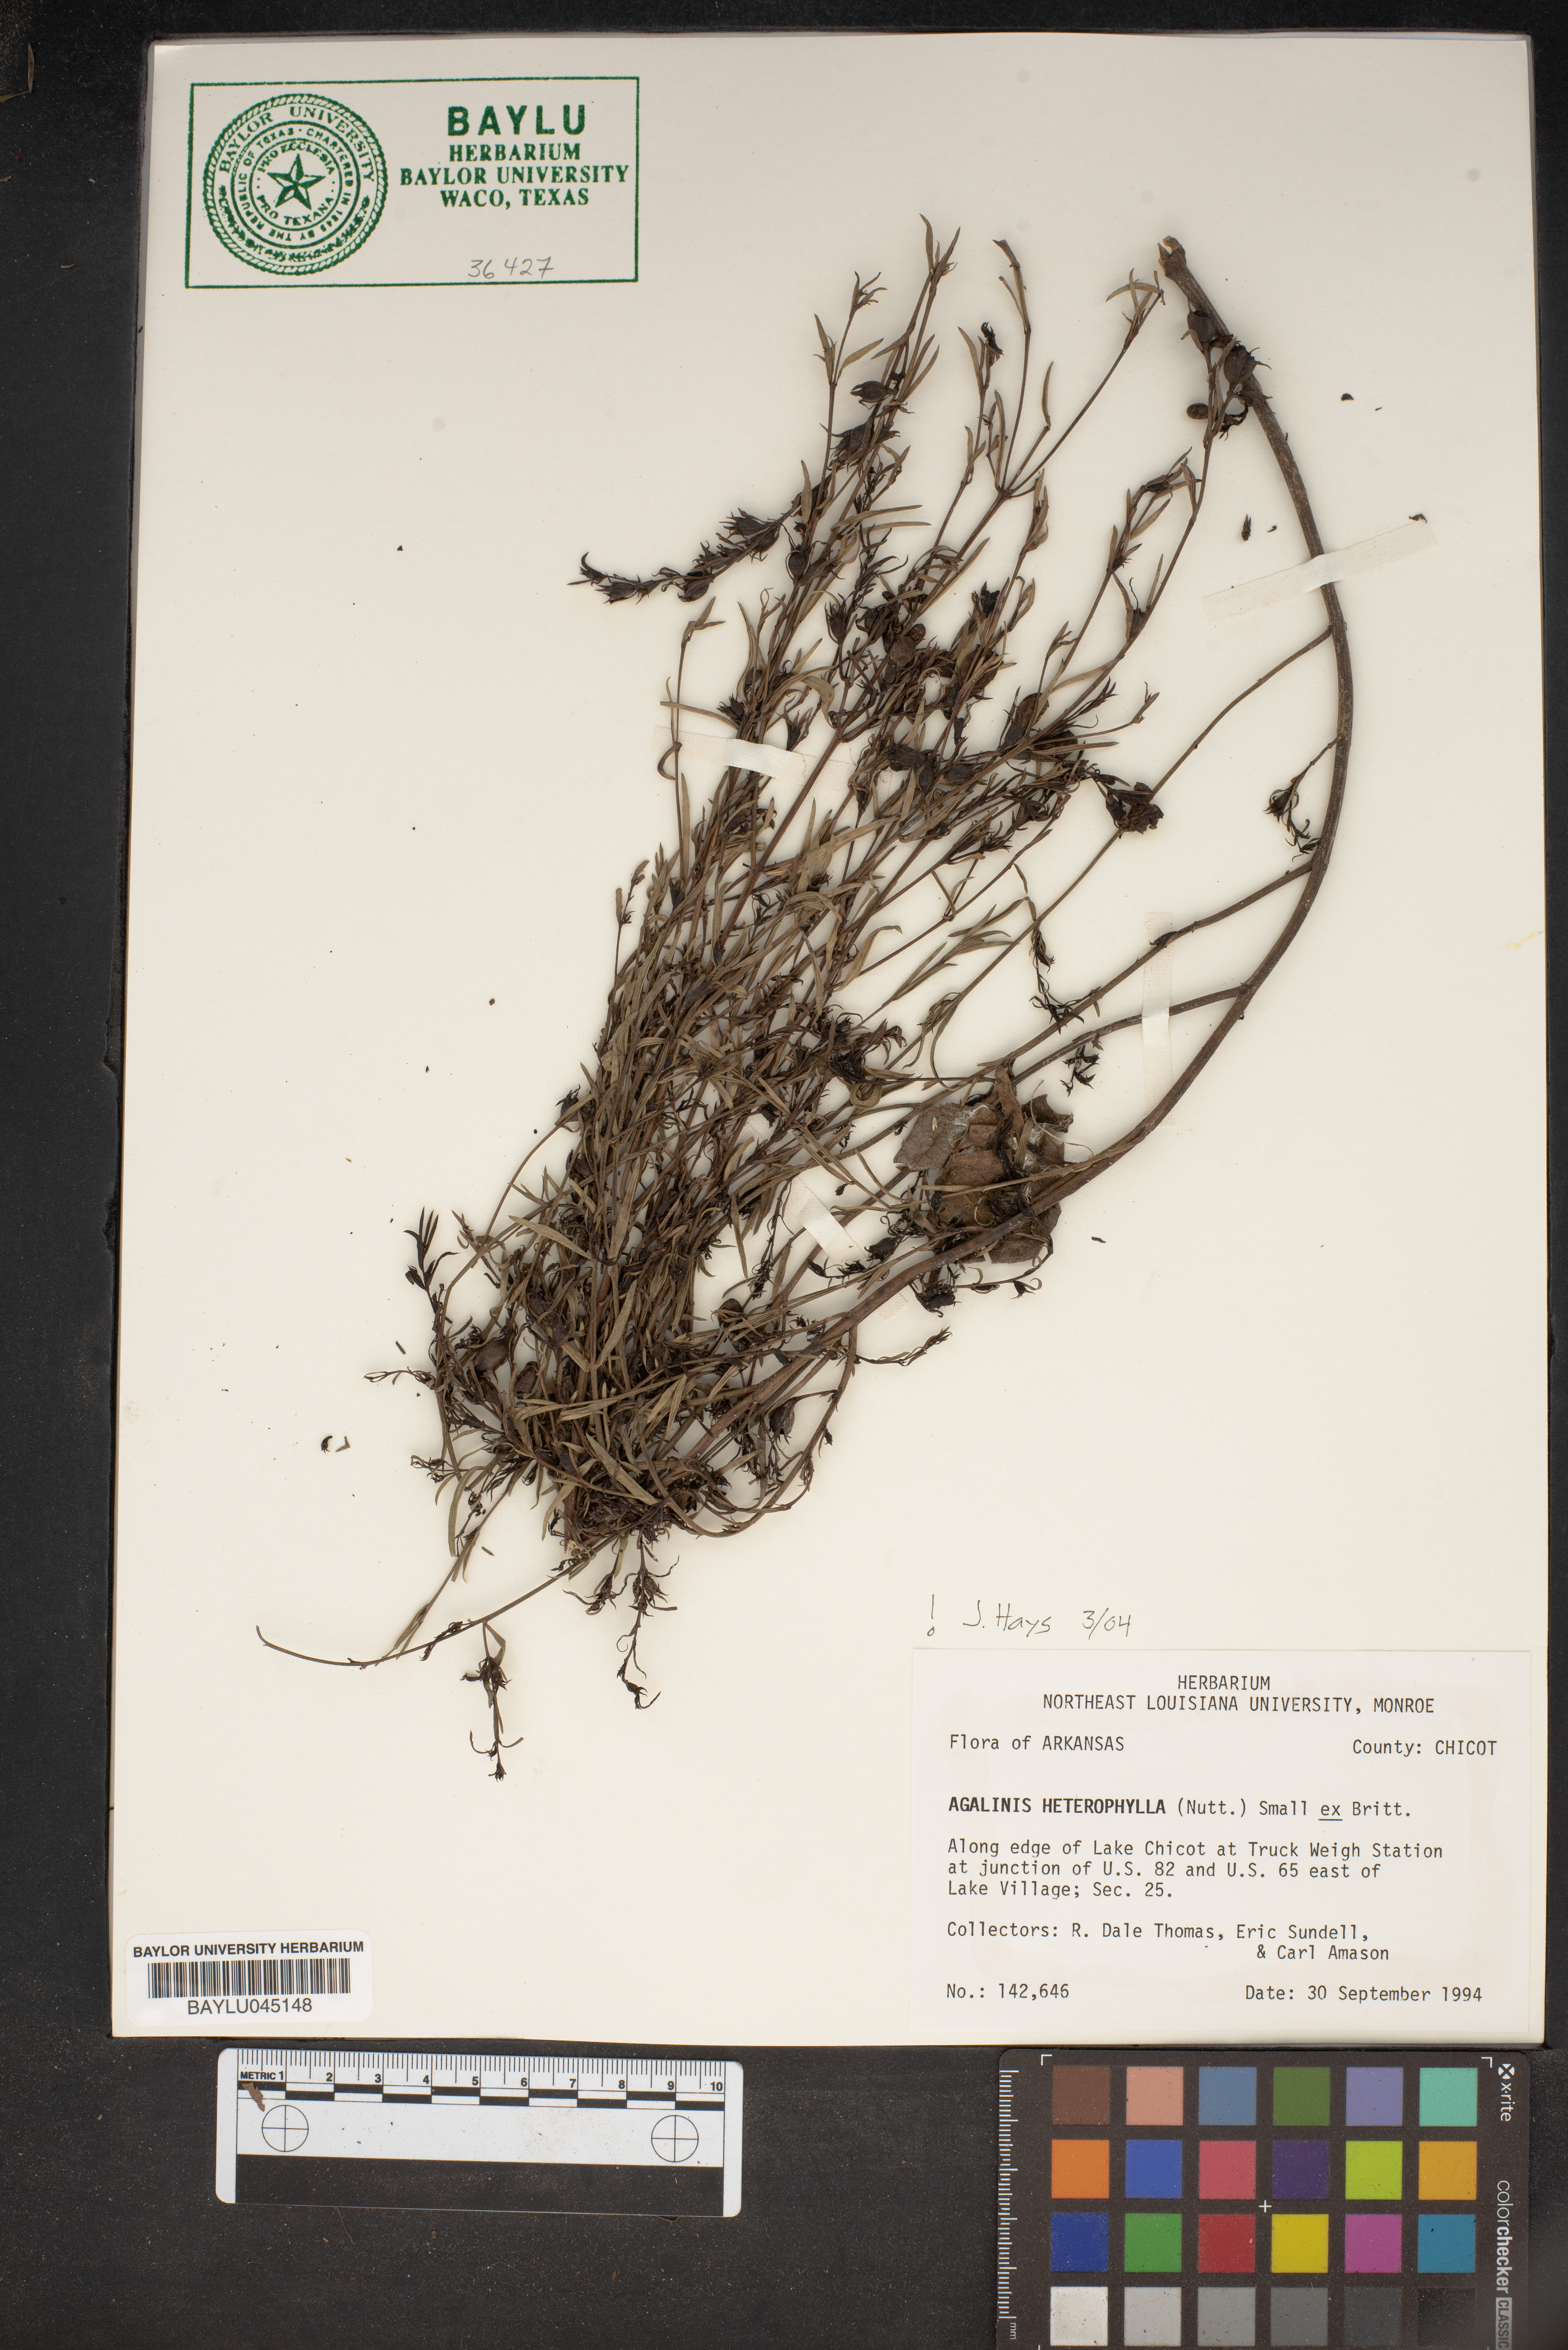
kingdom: Plantae
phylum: Tracheophyta
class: Magnoliopsida
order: Lamiales
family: Orobanchaceae
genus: Agalinis
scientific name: Agalinis heterophylla
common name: Prairie agalinis
